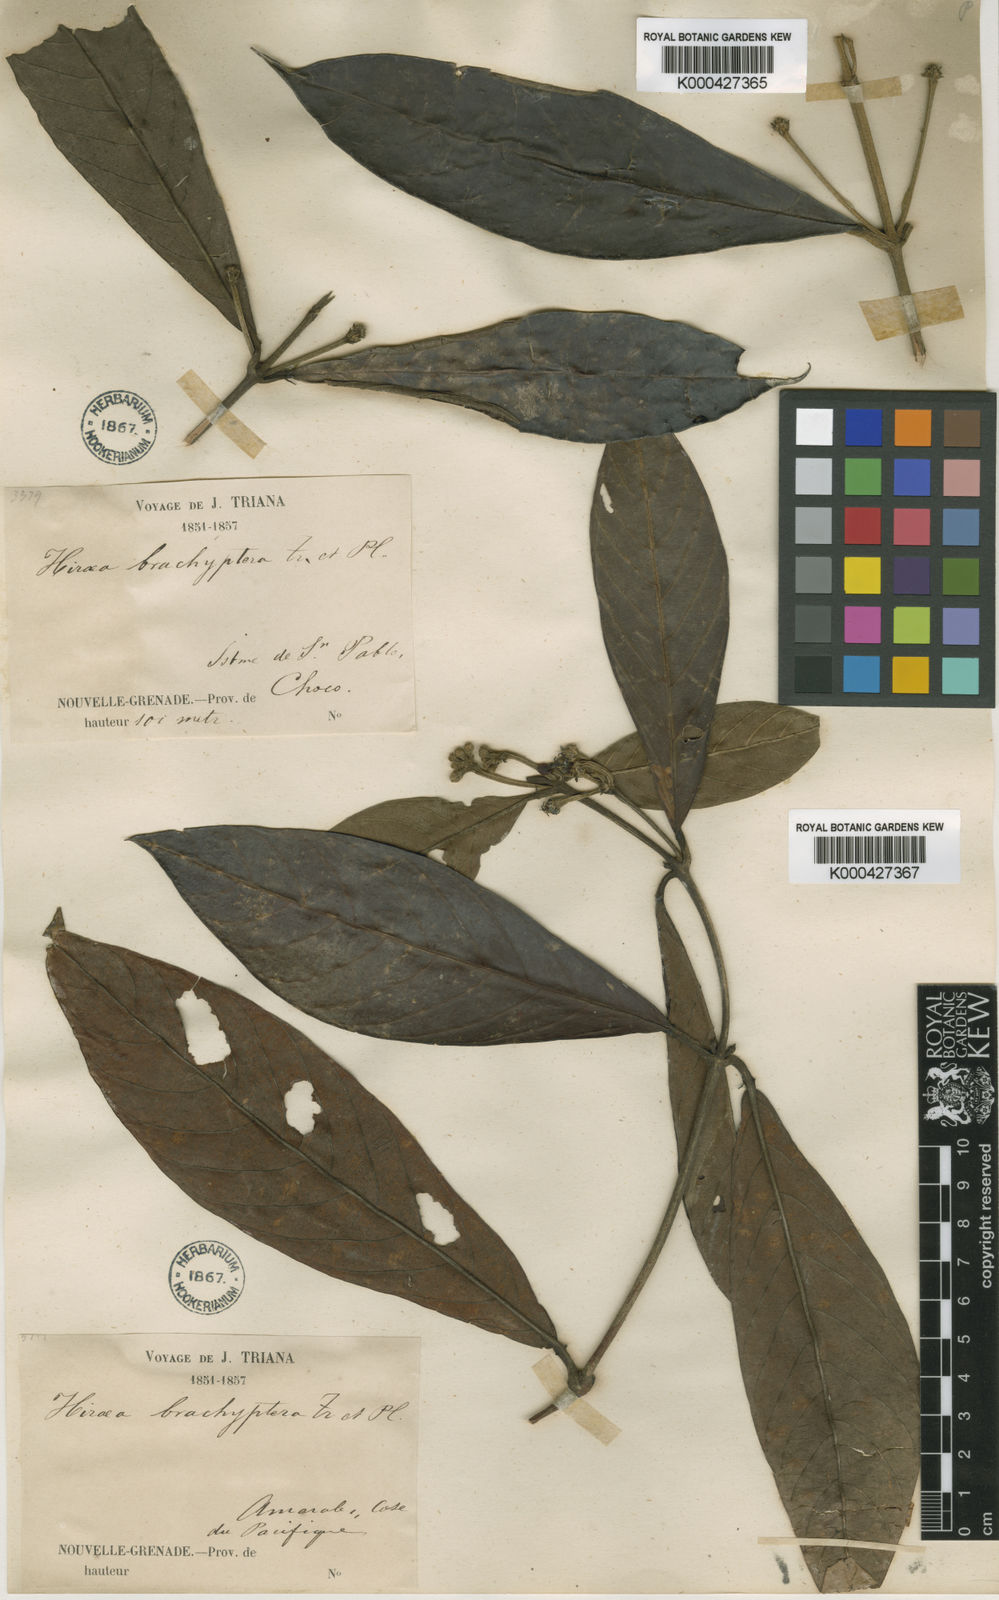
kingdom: Plantae
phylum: Tracheophyta
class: Magnoliopsida
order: Malpighiales
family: Malpighiaceae
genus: Hiraea
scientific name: Hiraea brachyptera
